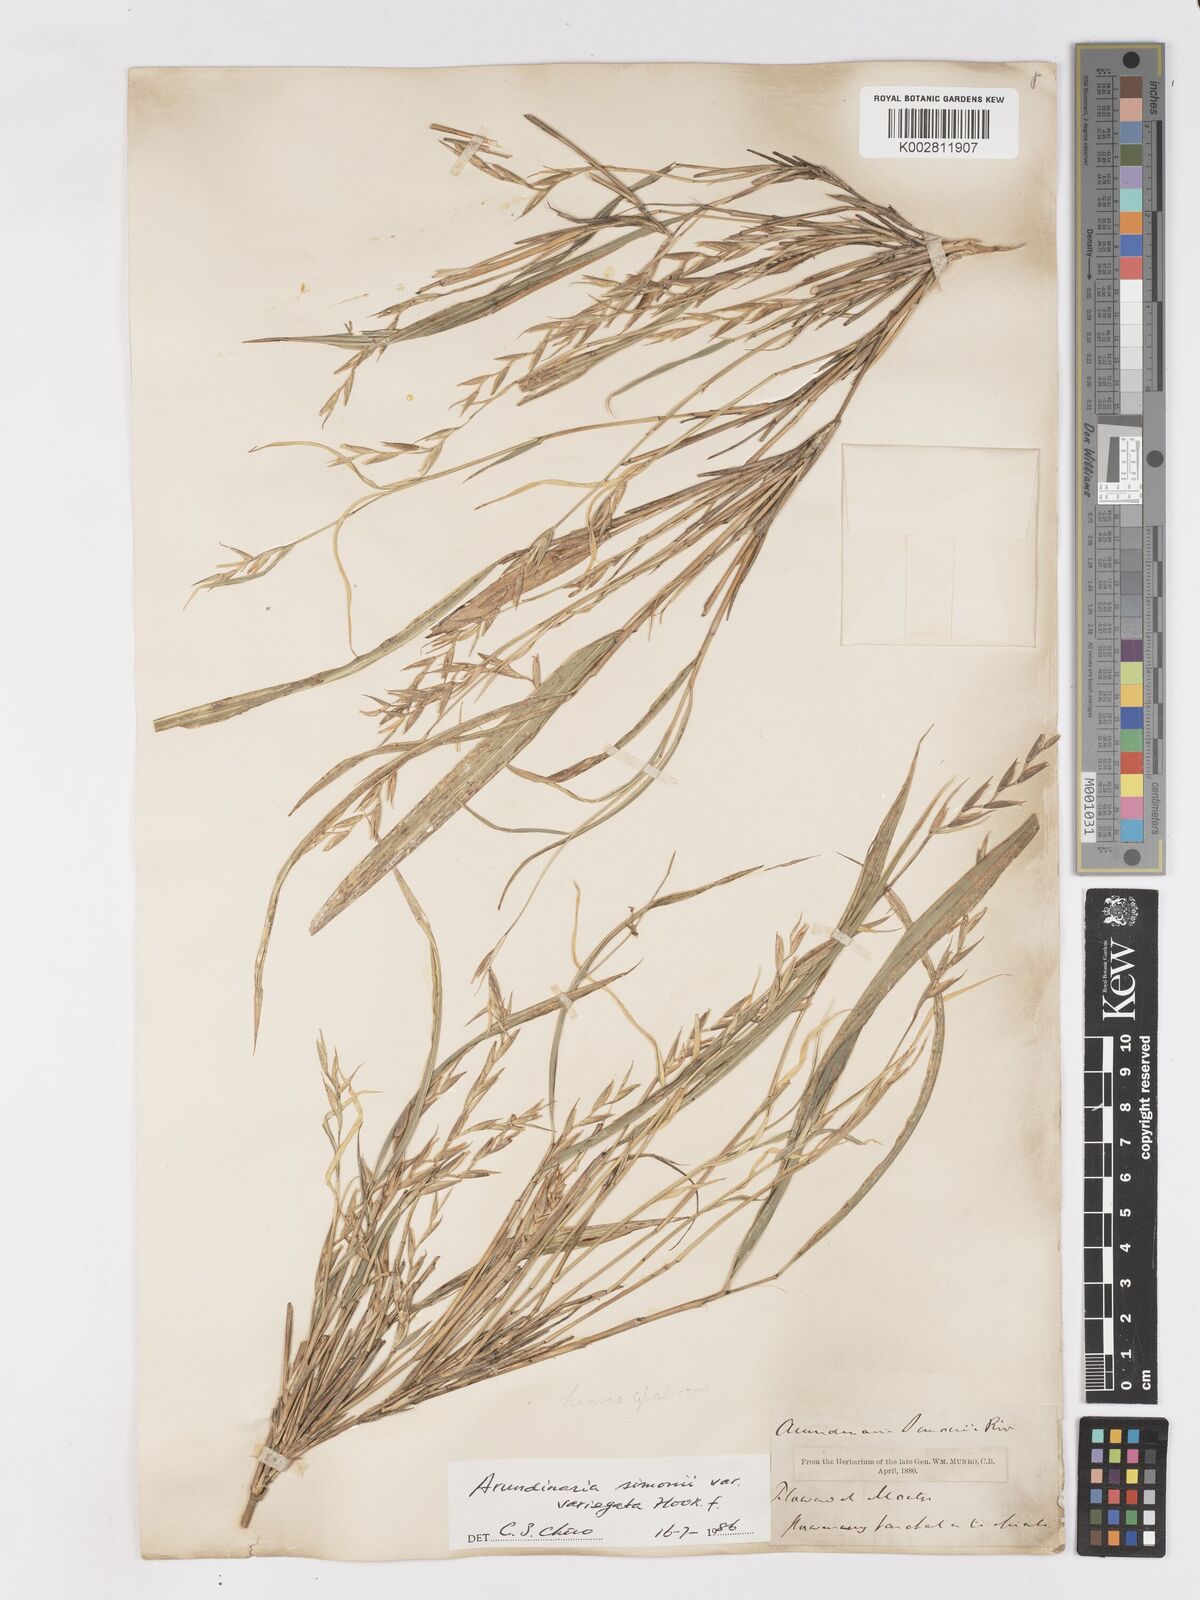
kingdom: Plantae
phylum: Tracheophyta
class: Liliopsida
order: Poales
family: Poaceae
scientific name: Poaceae
